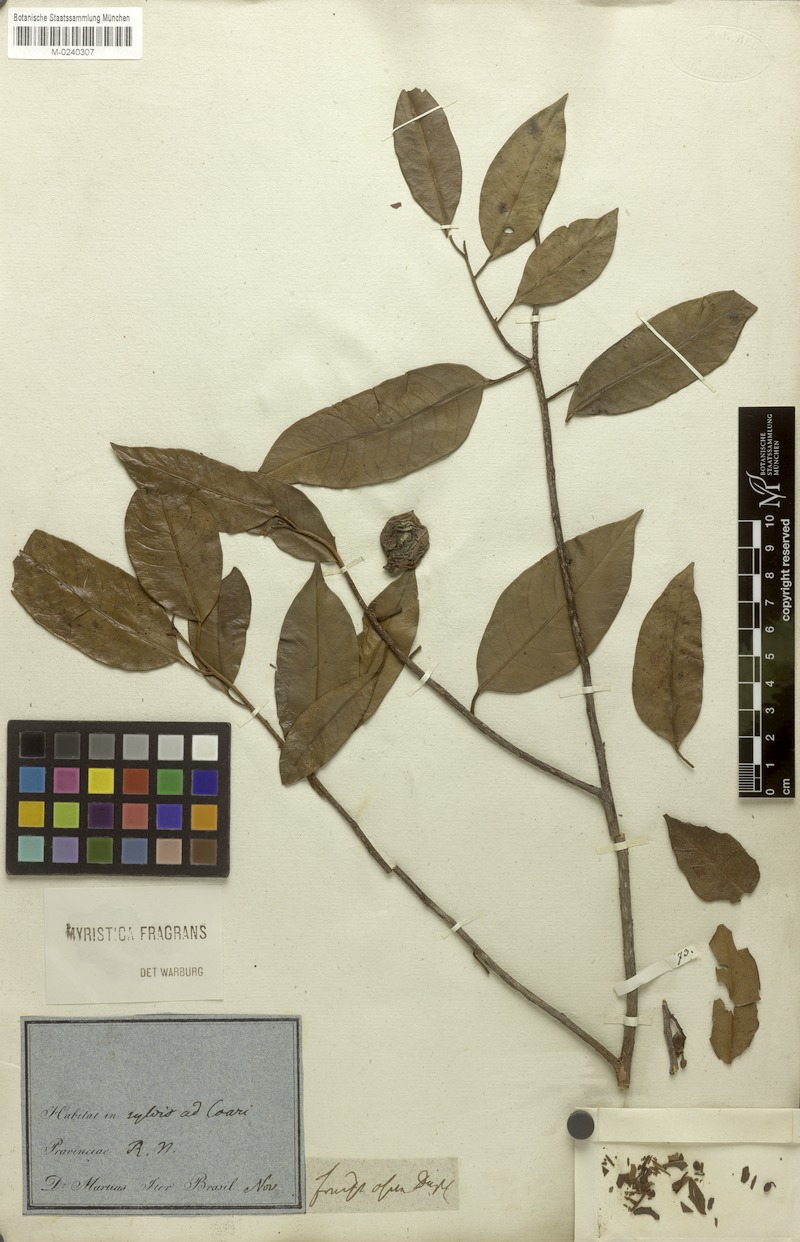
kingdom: Plantae
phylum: Tracheophyta
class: Magnoliopsida
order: Magnoliales
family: Myristicaceae
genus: Myristica
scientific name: Myristica fragrans
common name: Nutmeg
